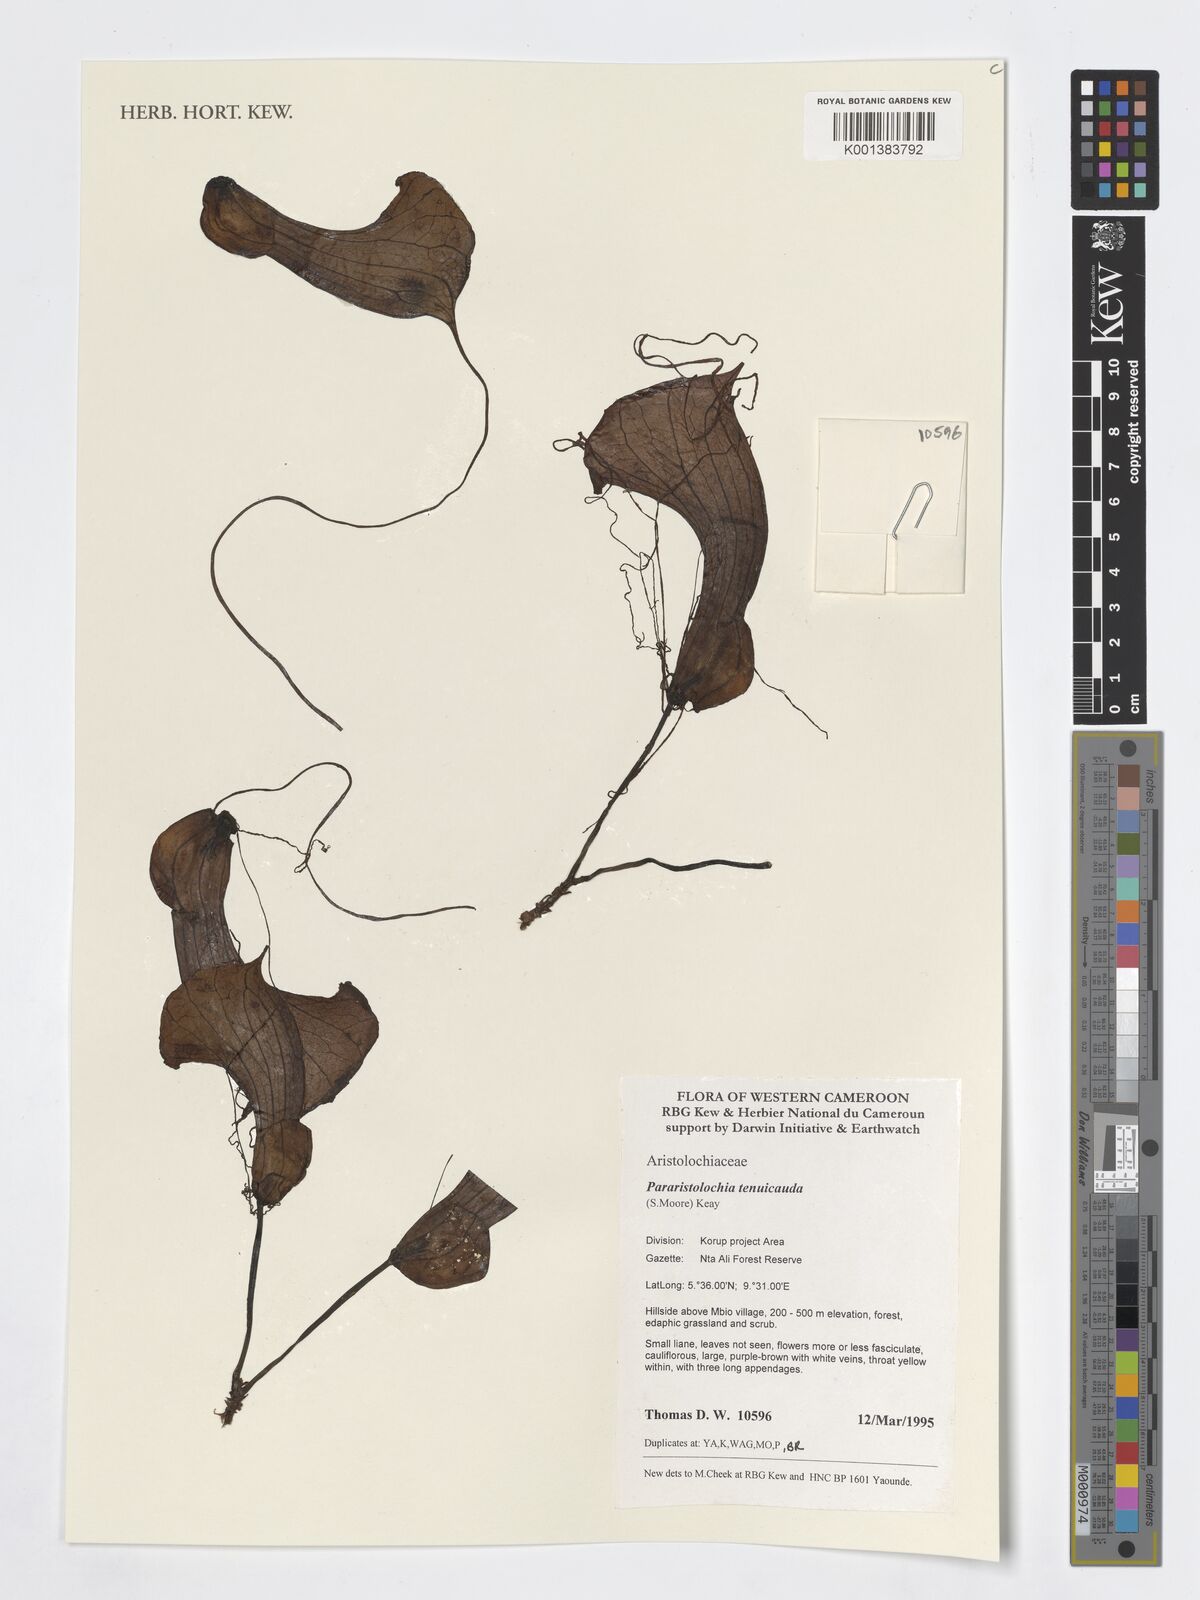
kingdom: Plantae
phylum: Tracheophyta
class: Magnoliopsida
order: Piperales
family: Aristolochiaceae
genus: Aristolochia
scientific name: Aristolochia promissa
